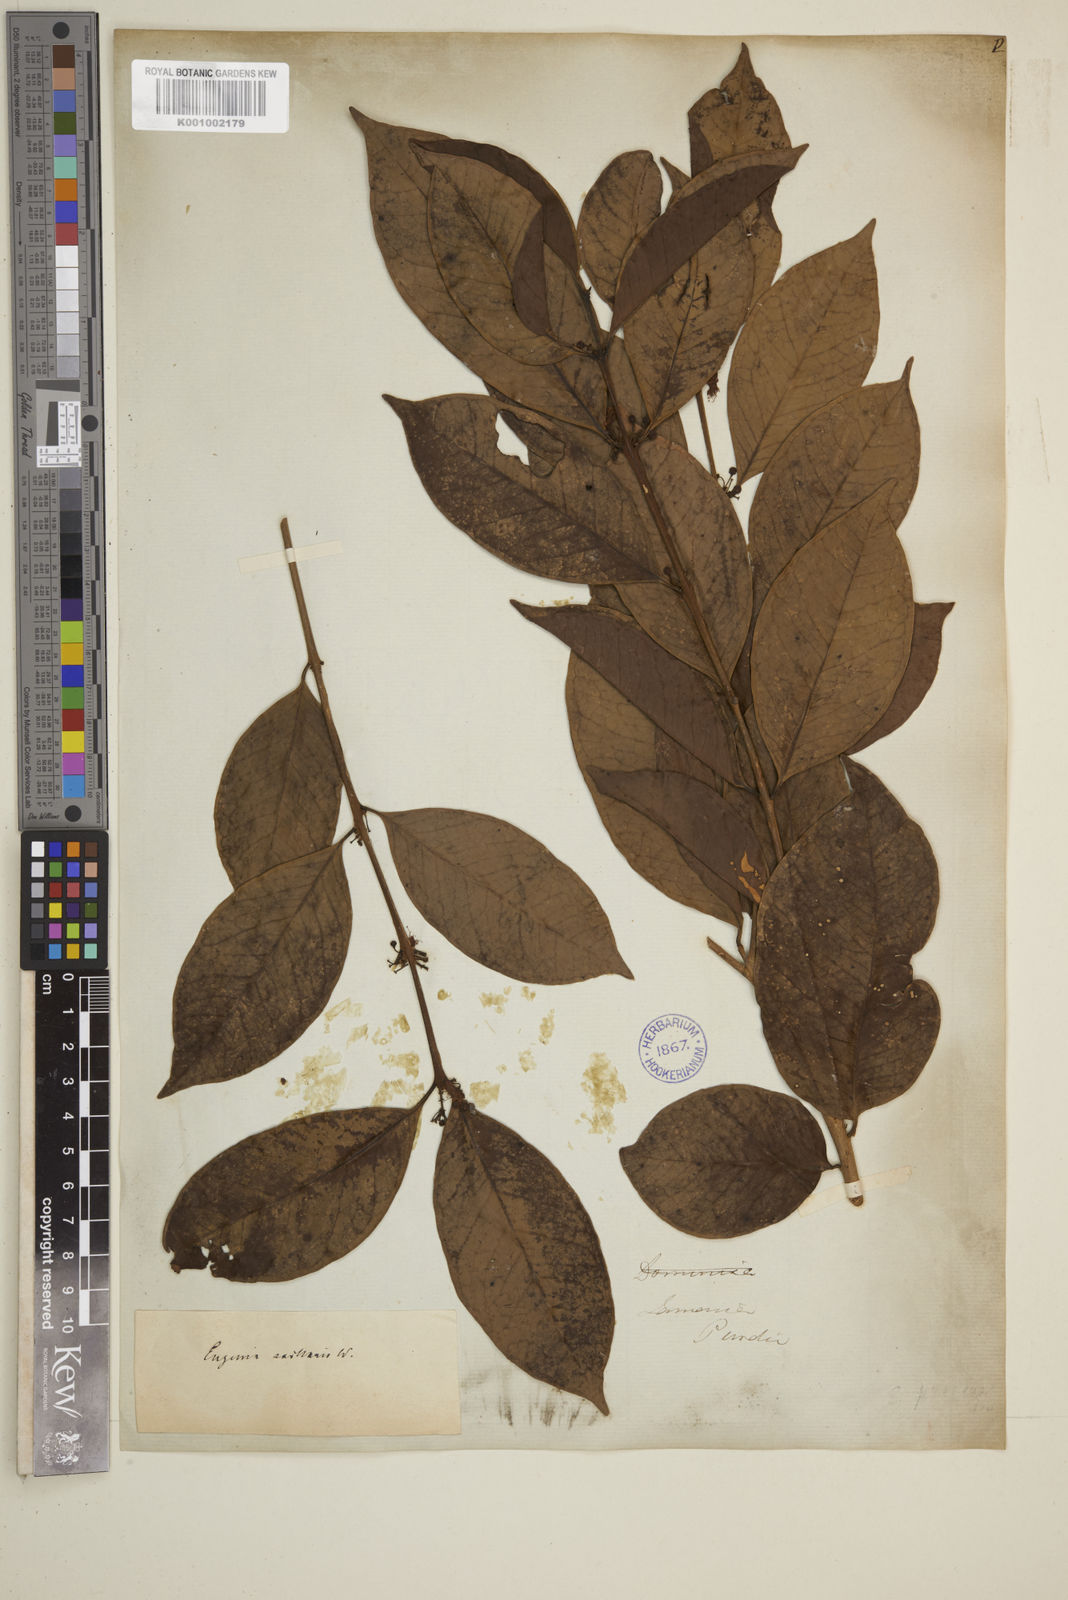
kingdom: Plantae
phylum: Tracheophyta
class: Magnoliopsida
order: Myrtales
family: Myrtaceae
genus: Eugenia
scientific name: Eugenia axillaris
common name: Choaky berry
